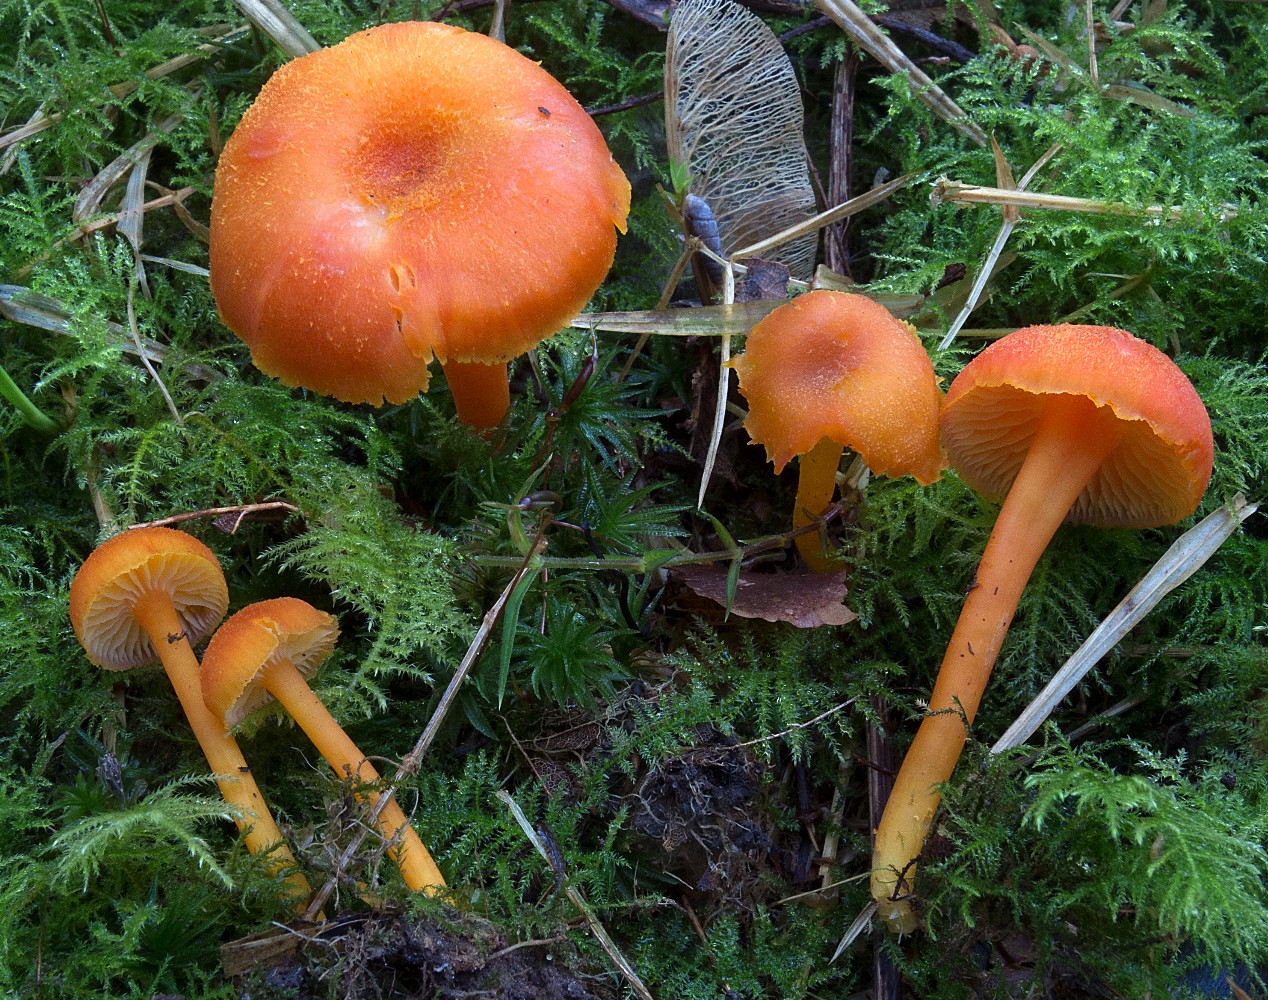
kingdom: Fungi
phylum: Basidiomycota
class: Agaricomycetes
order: Agaricales
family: Hygrophoraceae
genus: Hygrocybe
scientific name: Hygrocybe miniata
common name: mønje-vokshat
